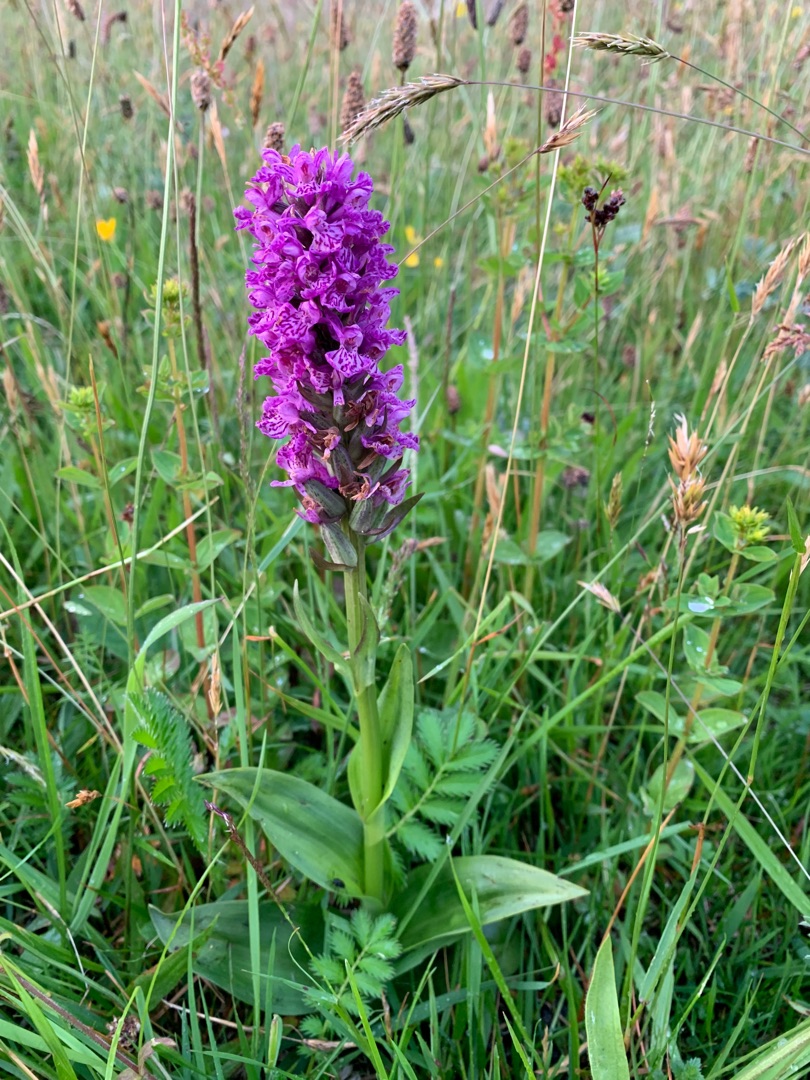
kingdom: Plantae
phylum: Tracheophyta
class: Liliopsida
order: Asparagales
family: Orchidaceae
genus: Dactylorhiza
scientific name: Dactylorhiza majalis
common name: Purpur-gøgeurt
